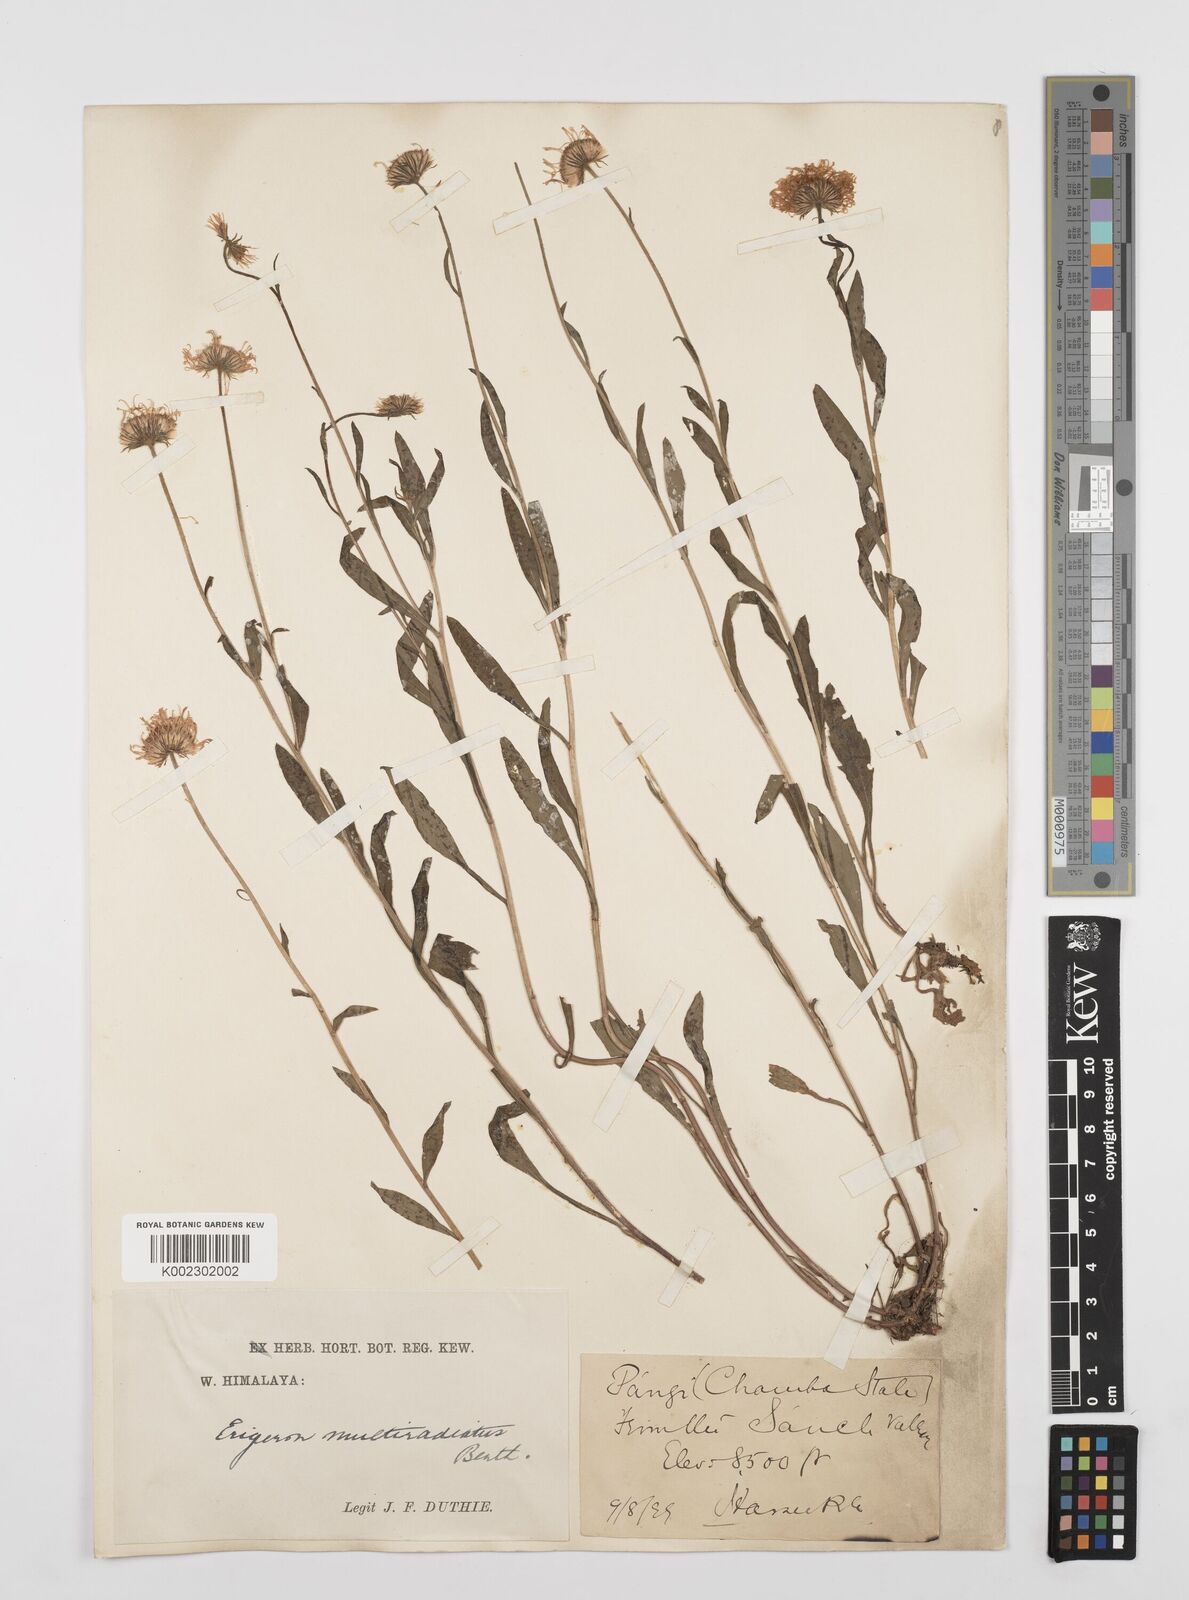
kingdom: Plantae
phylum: Tracheophyta
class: Magnoliopsida
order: Asterales
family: Asteraceae
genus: Erigeron
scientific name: Erigeron alpinus
